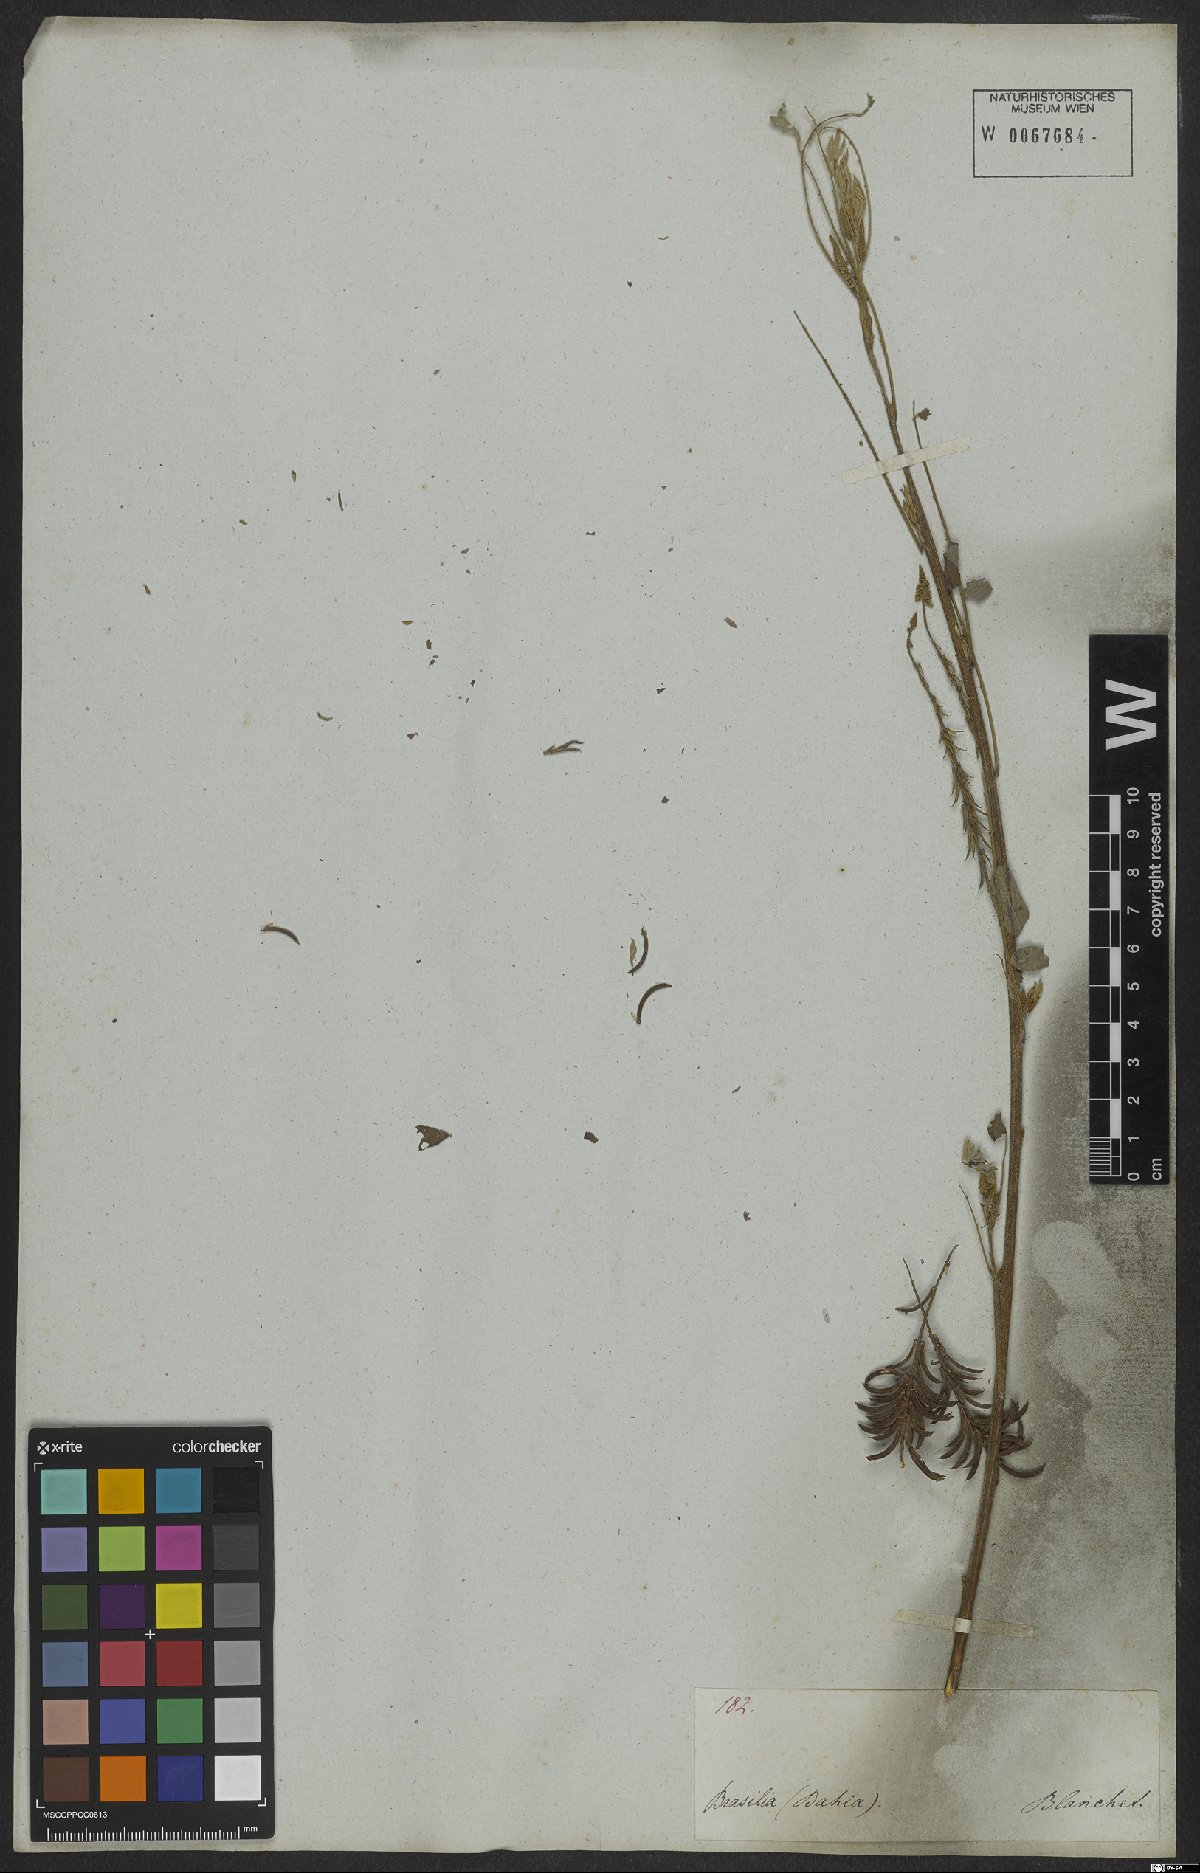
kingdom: Plantae
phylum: Tracheophyta
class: Magnoliopsida
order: Fabales
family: Fabaceae
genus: Indigofera
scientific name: Indigofera suffruticosa
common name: Anil de pasto
